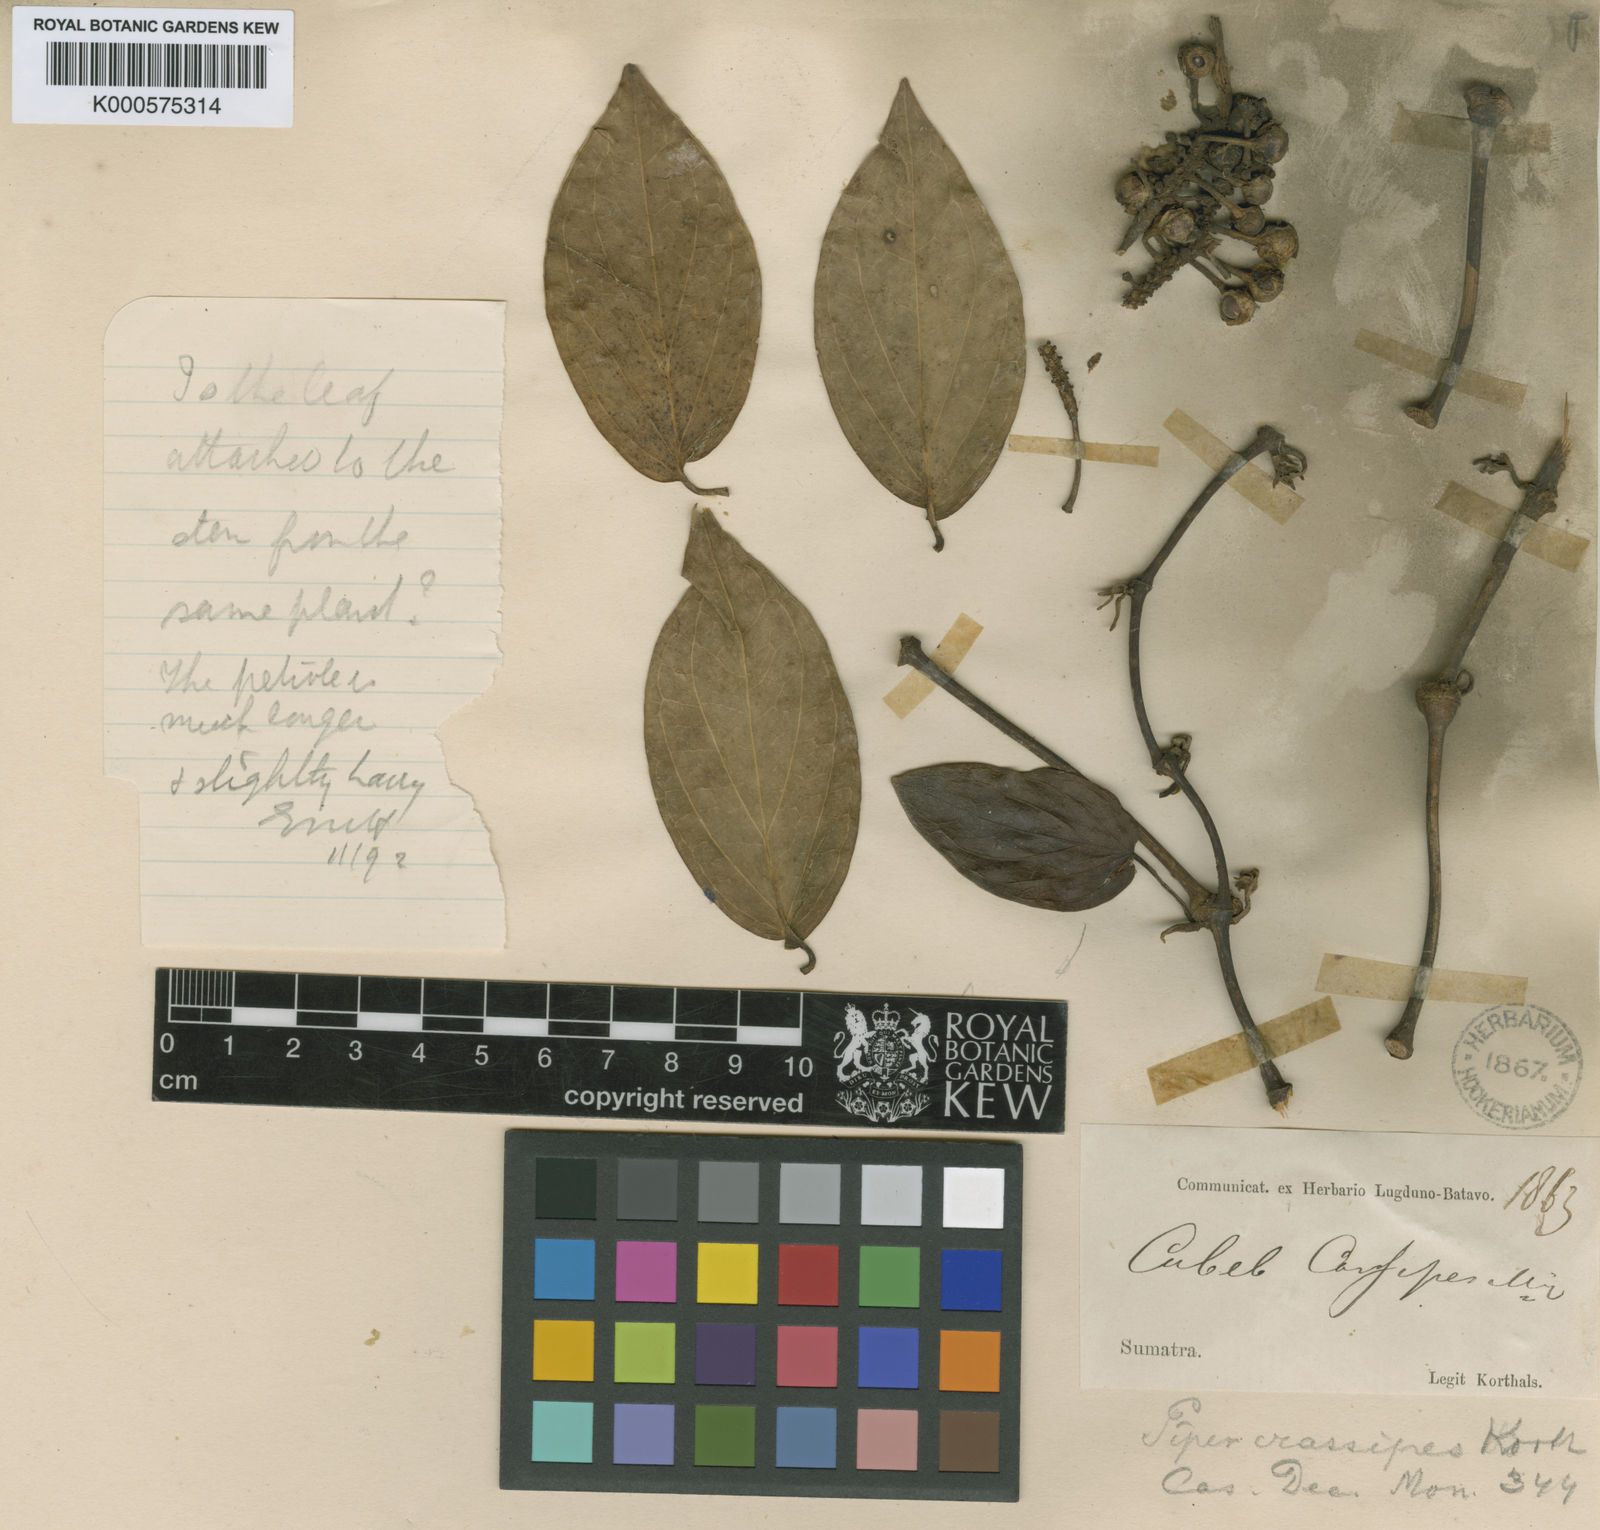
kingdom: Plantae
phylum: Tracheophyta
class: Magnoliopsida
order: Piperales
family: Piperaceae
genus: Piper
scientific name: Piper
